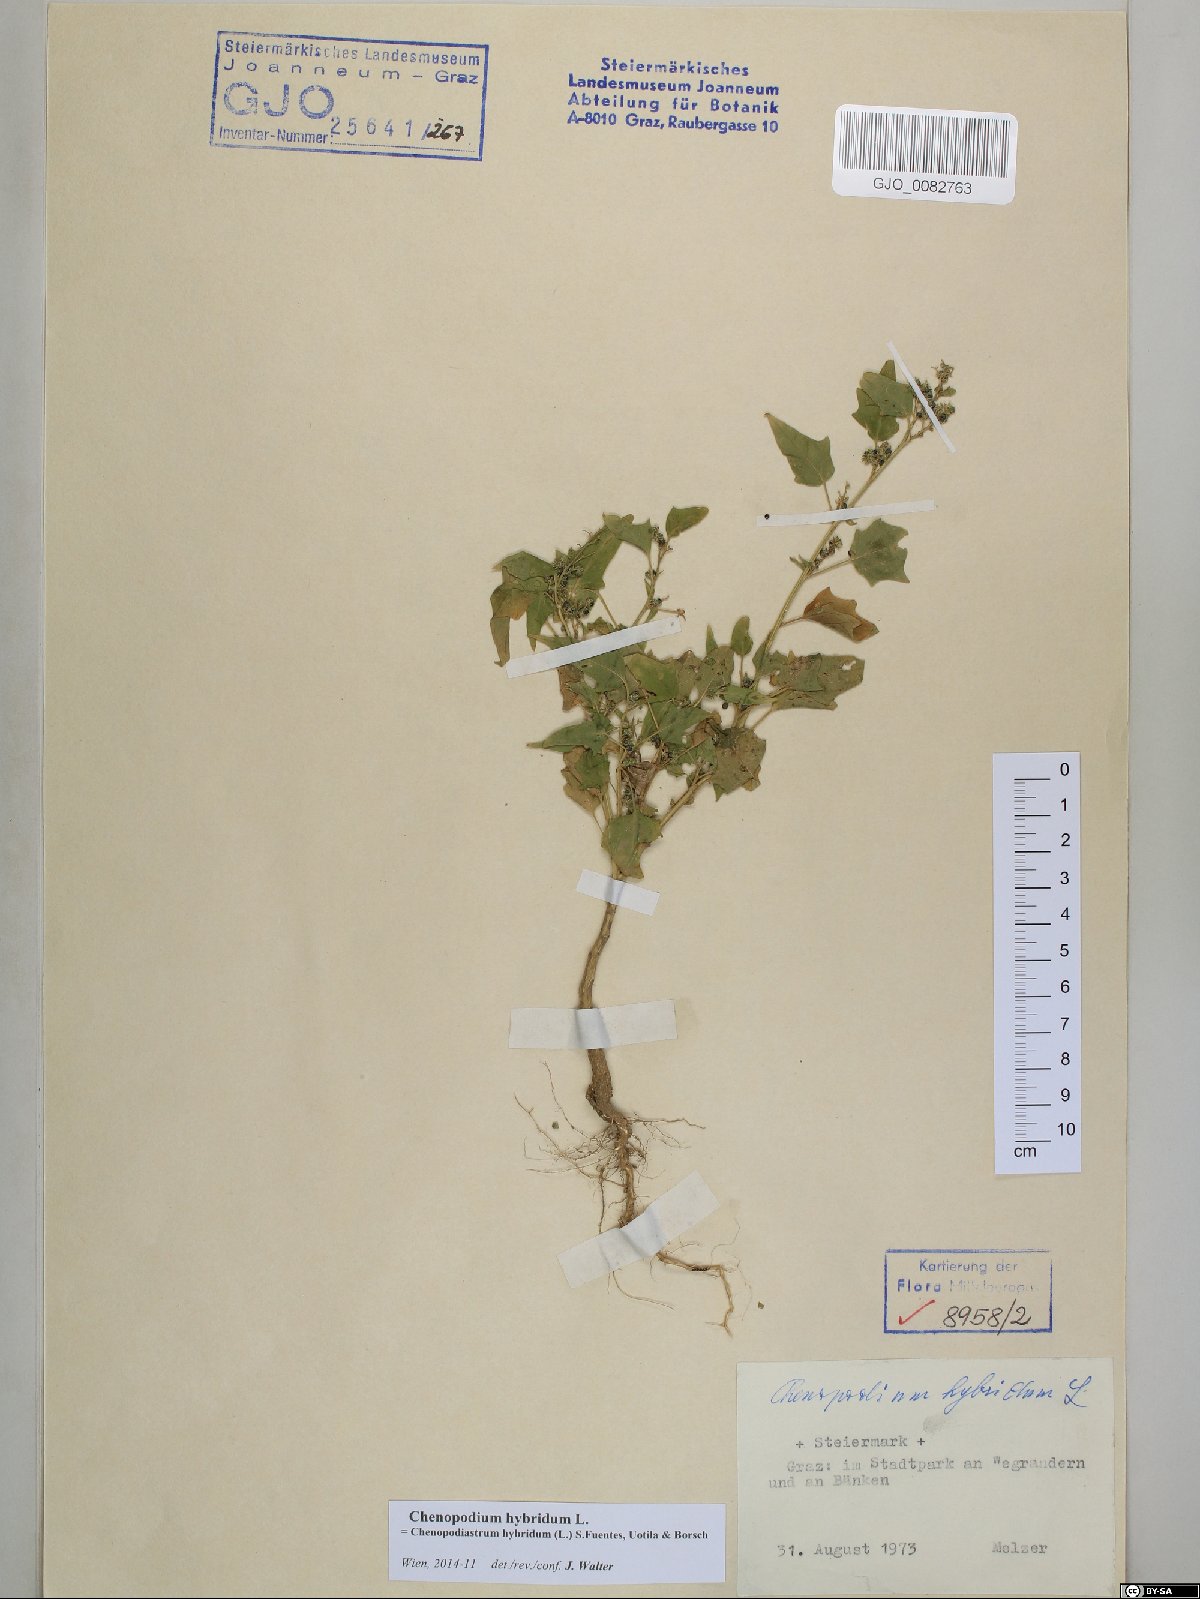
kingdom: Plantae
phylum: Tracheophyta
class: Magnoliopsida
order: Caryophyllales
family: Amaranthaceae
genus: Chenopodiastrum
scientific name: Chenopodiastrum hybridum
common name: Mapleleaf goosefoot
